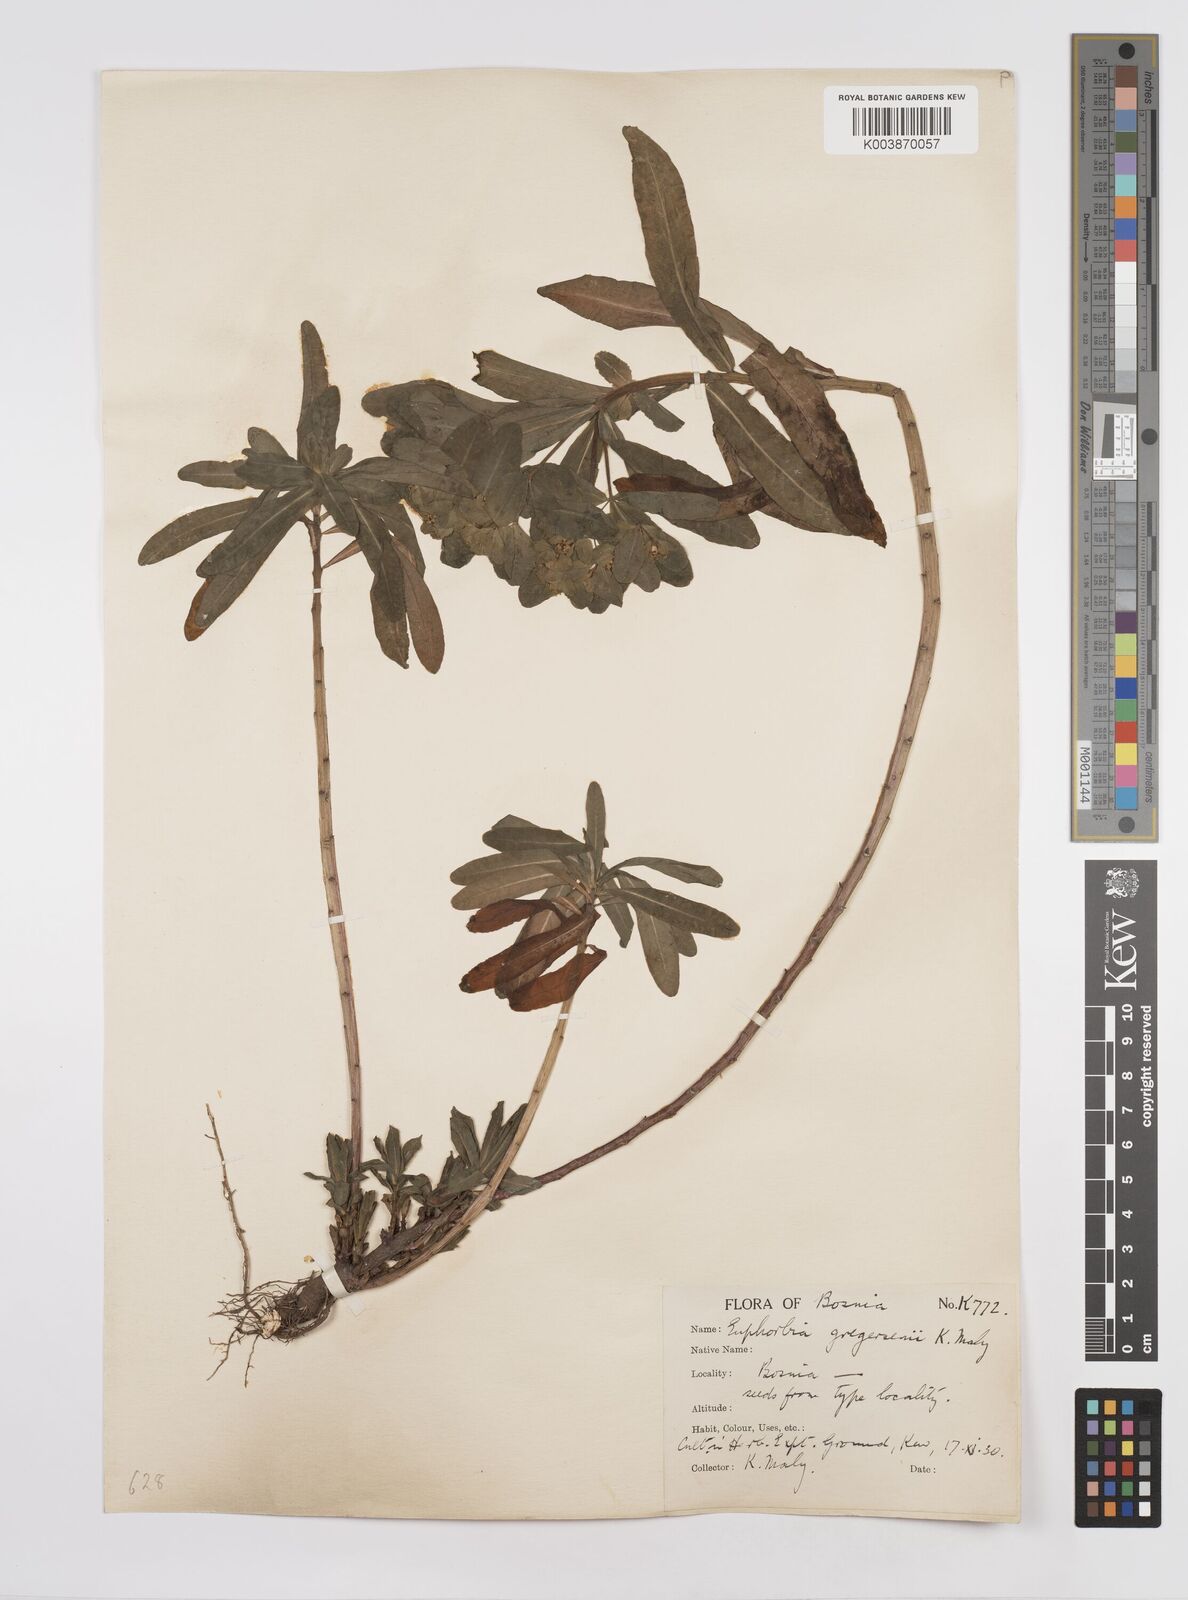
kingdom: Plantae
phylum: Tracheophyta
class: Magnoliopsida
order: Malpighiales
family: Euphorbiaceae
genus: Euphorbia
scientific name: Euphorbia gregersenii
